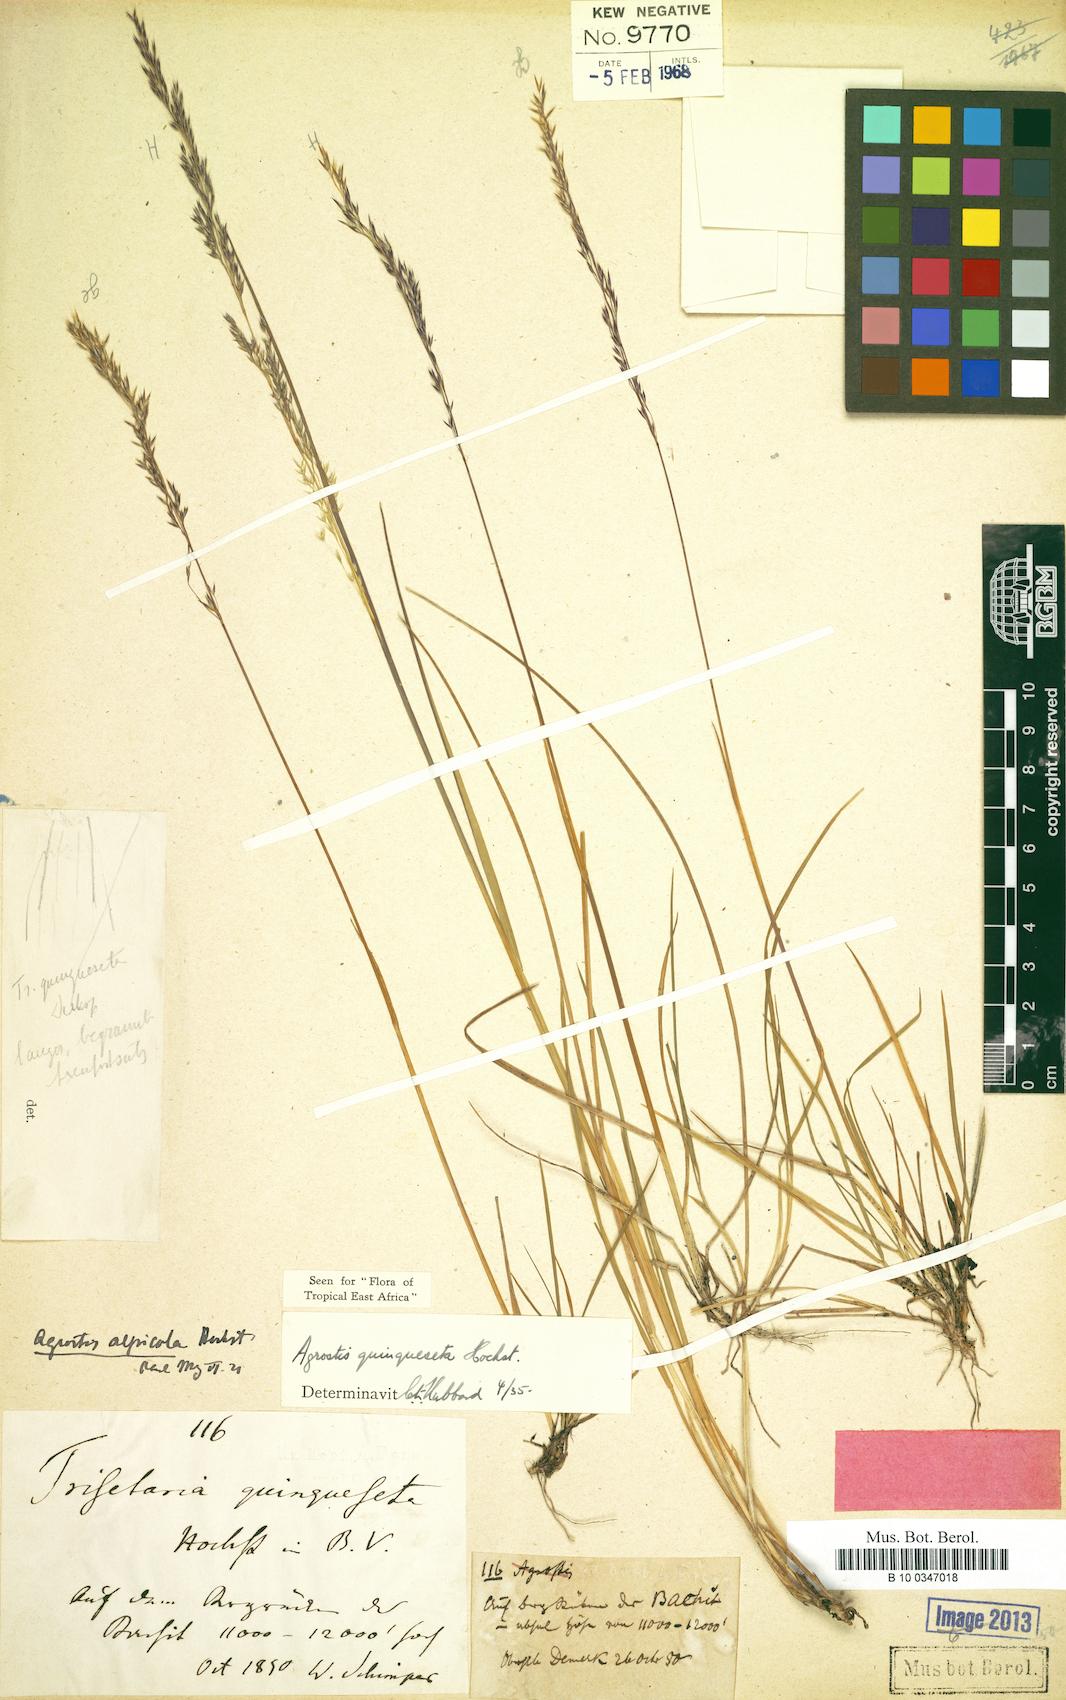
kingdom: Plantae
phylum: Tracheophyta
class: Liliopsida
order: Poales
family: Poaceae
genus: Agrostis
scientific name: Agrostis quinqueseta
